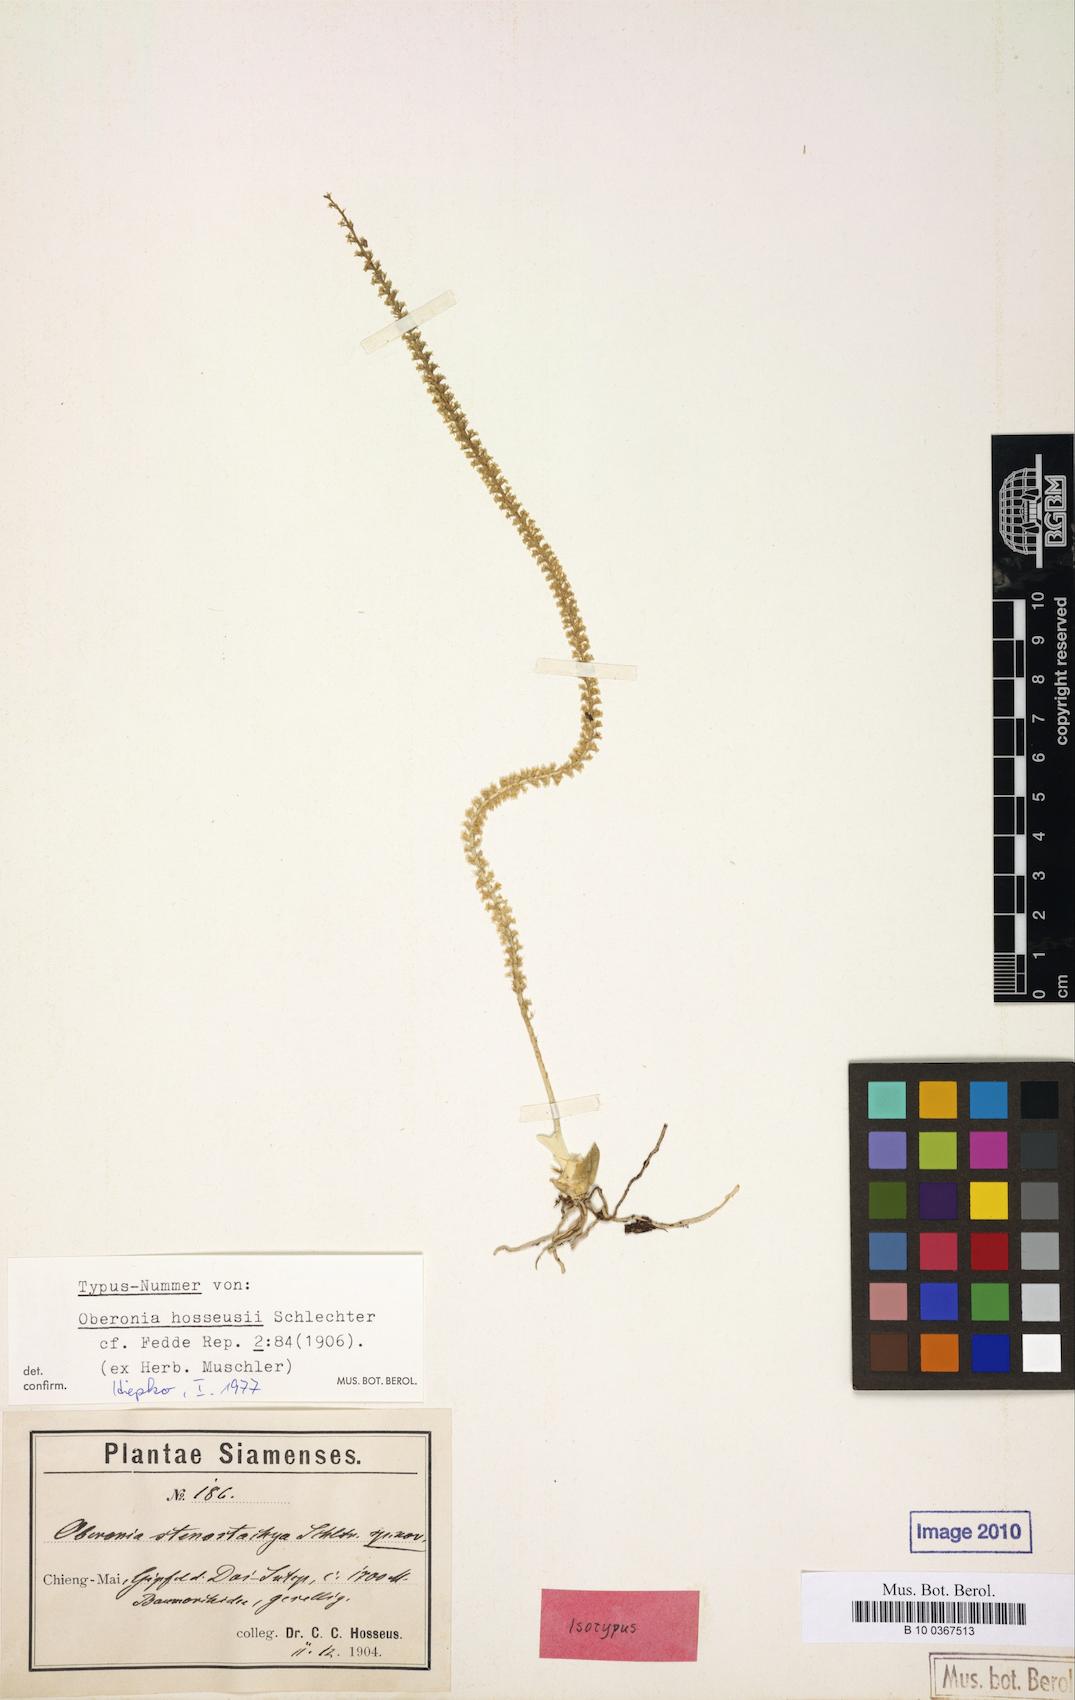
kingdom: Plantae
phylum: Tracheophyta
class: Liliopsida
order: Asparagales
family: Orchidaceae
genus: Oberonia
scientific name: Oberonia acaulis
